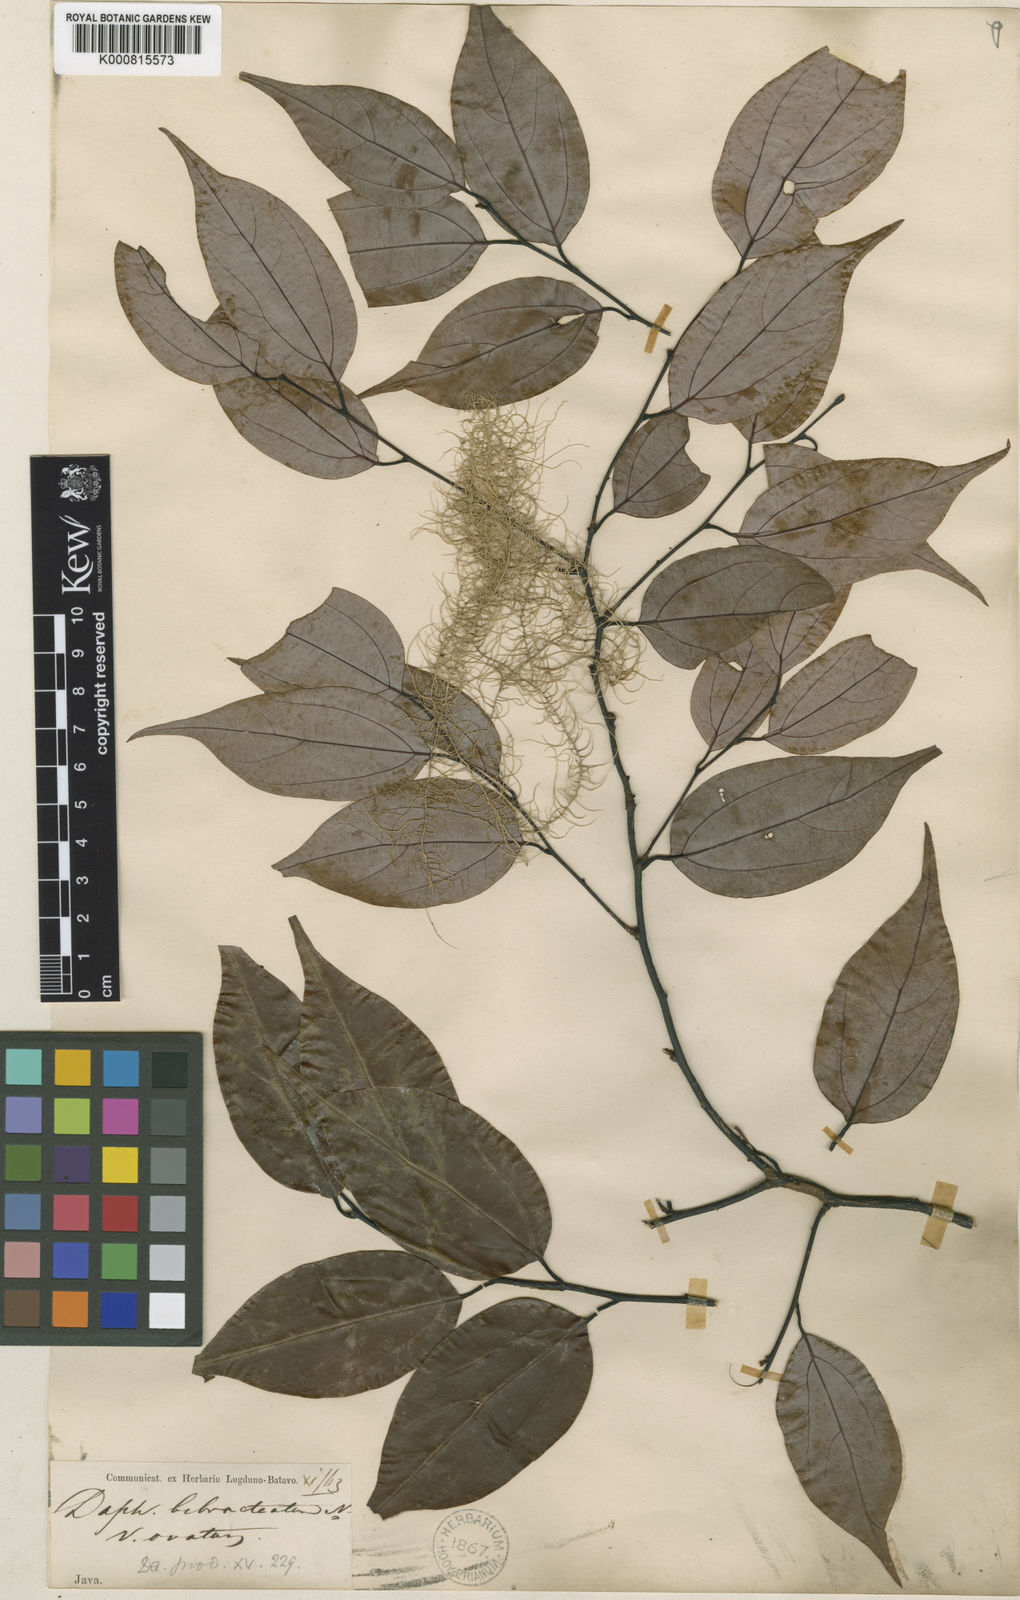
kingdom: Plantae
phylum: Tracheophyta
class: Magnoliopsida
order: Laurales
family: Lauraceae
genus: Lindera
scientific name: Lindera bibracteata
